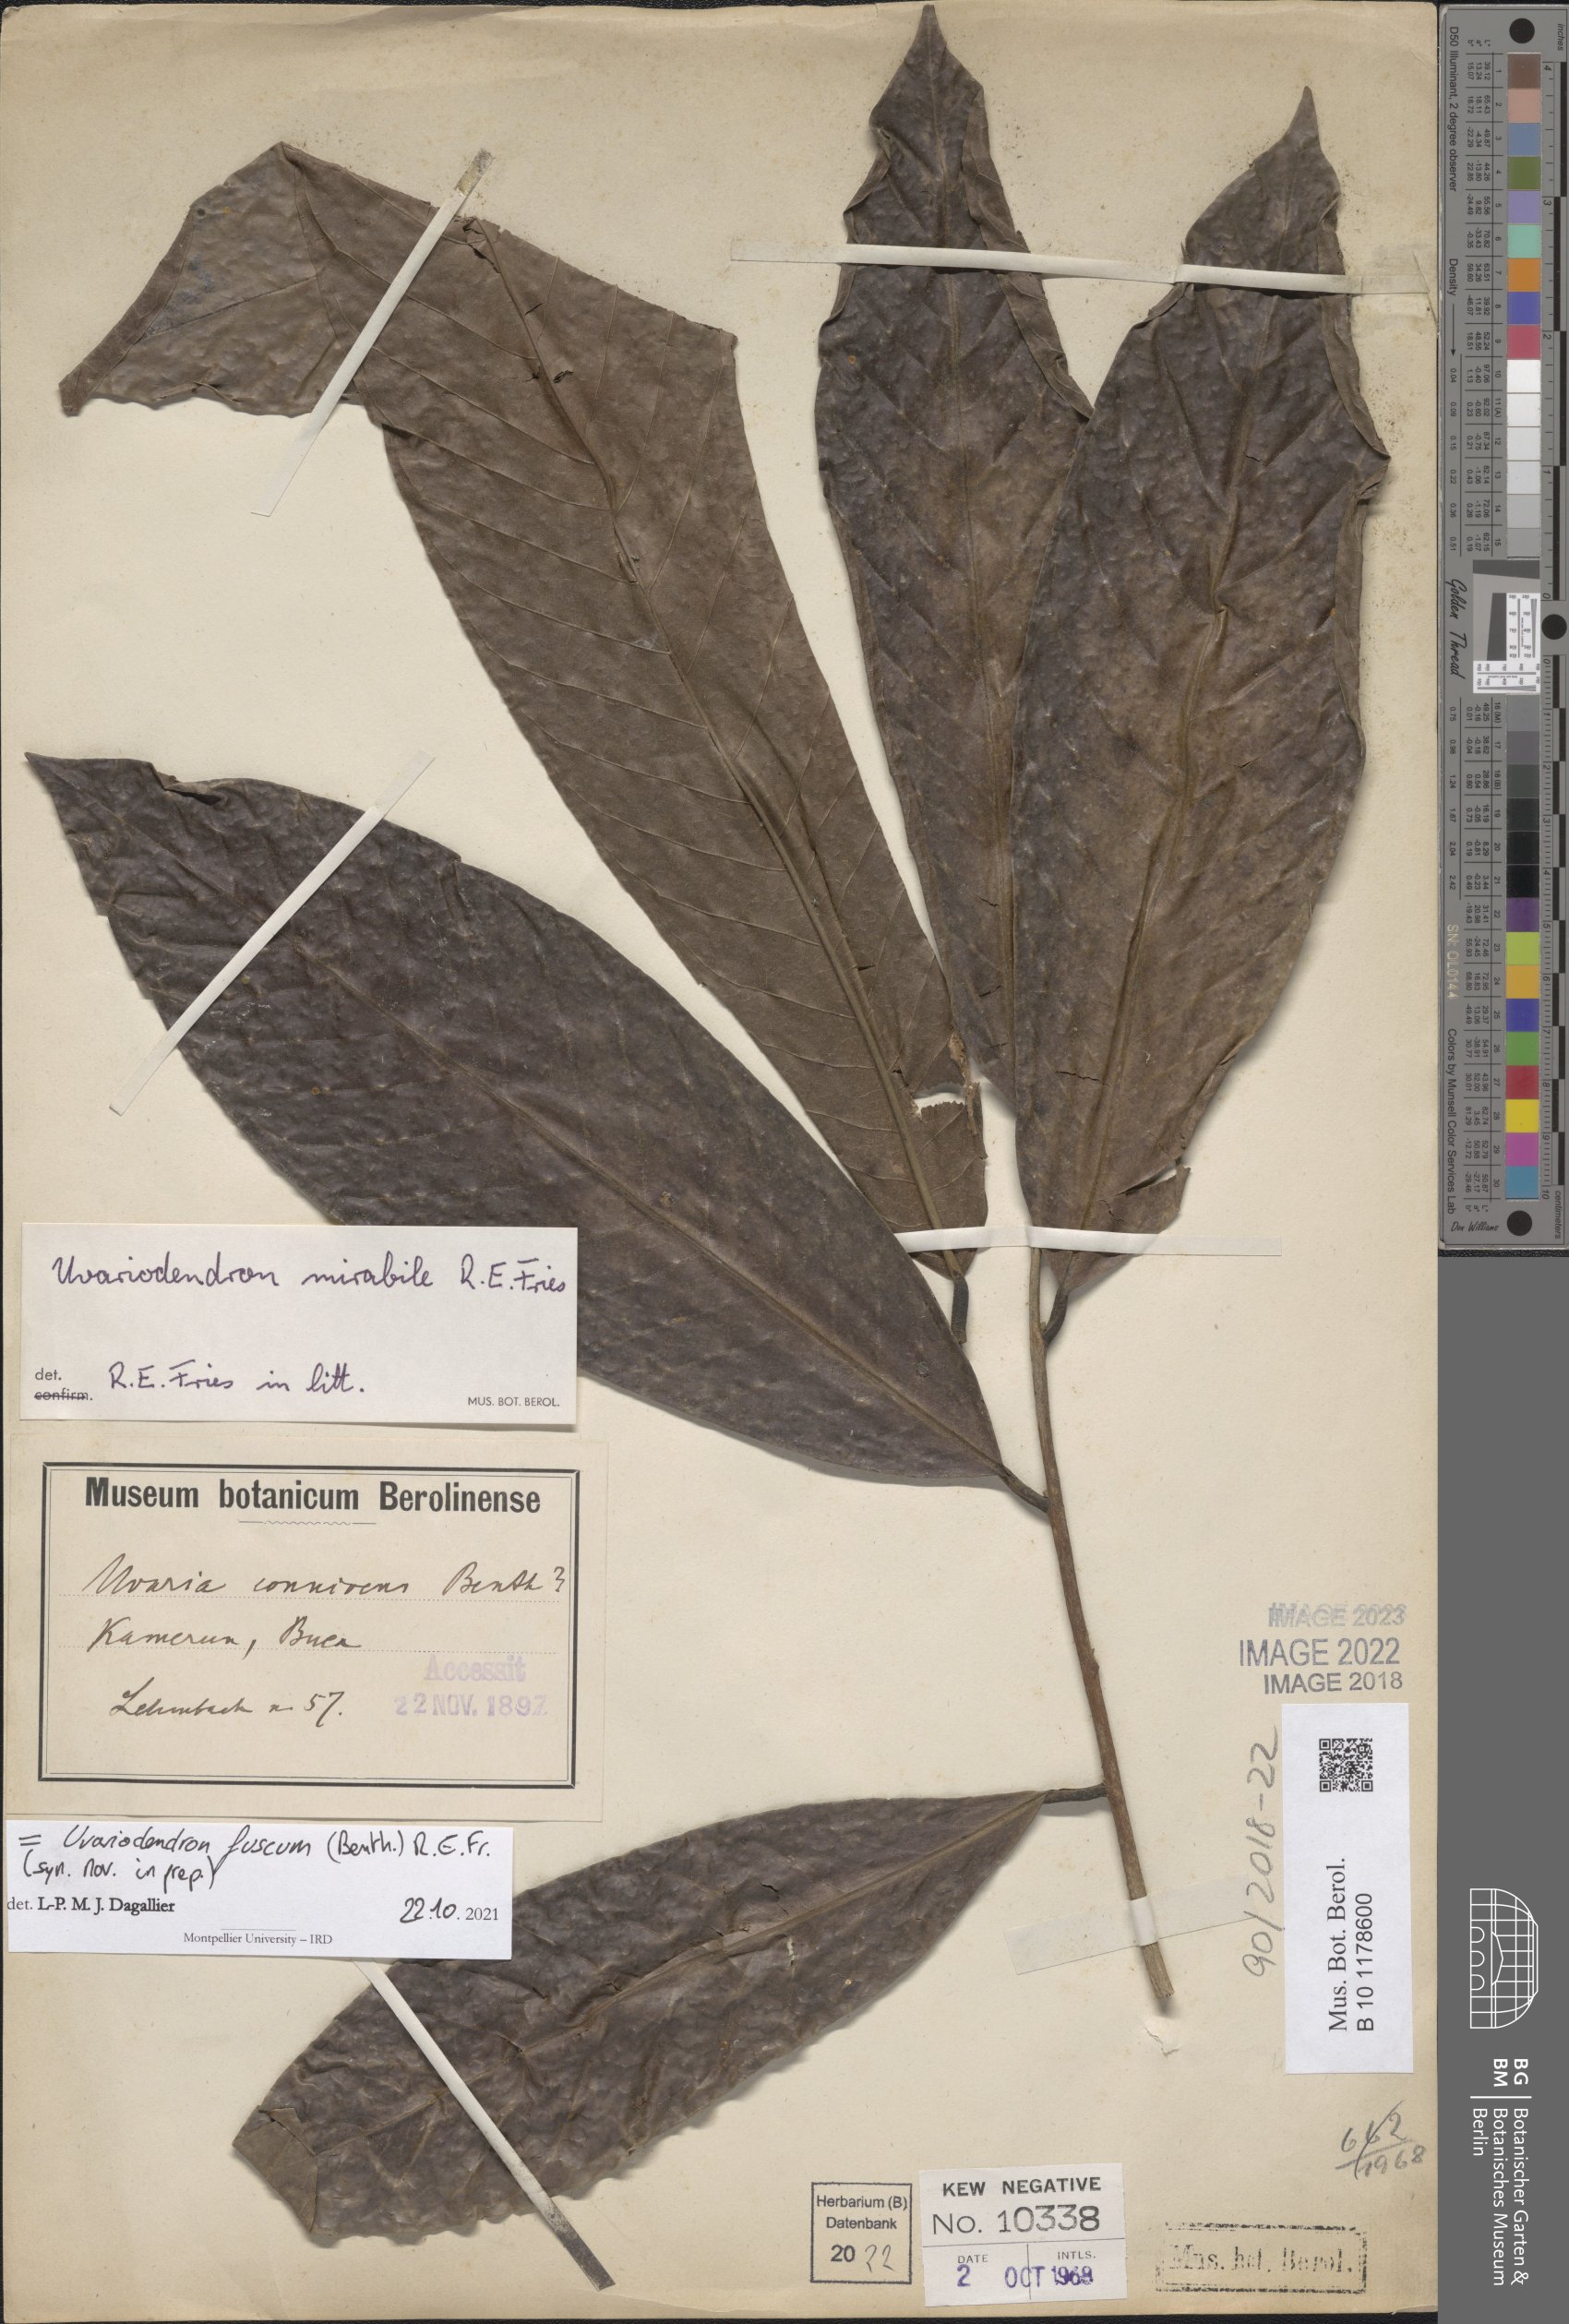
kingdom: Plantae
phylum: Tracheophyta
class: Magnoliopsida
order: Magnoliales
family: Annonaceae
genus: Uvariodendron
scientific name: Uvariodendron fuscum
